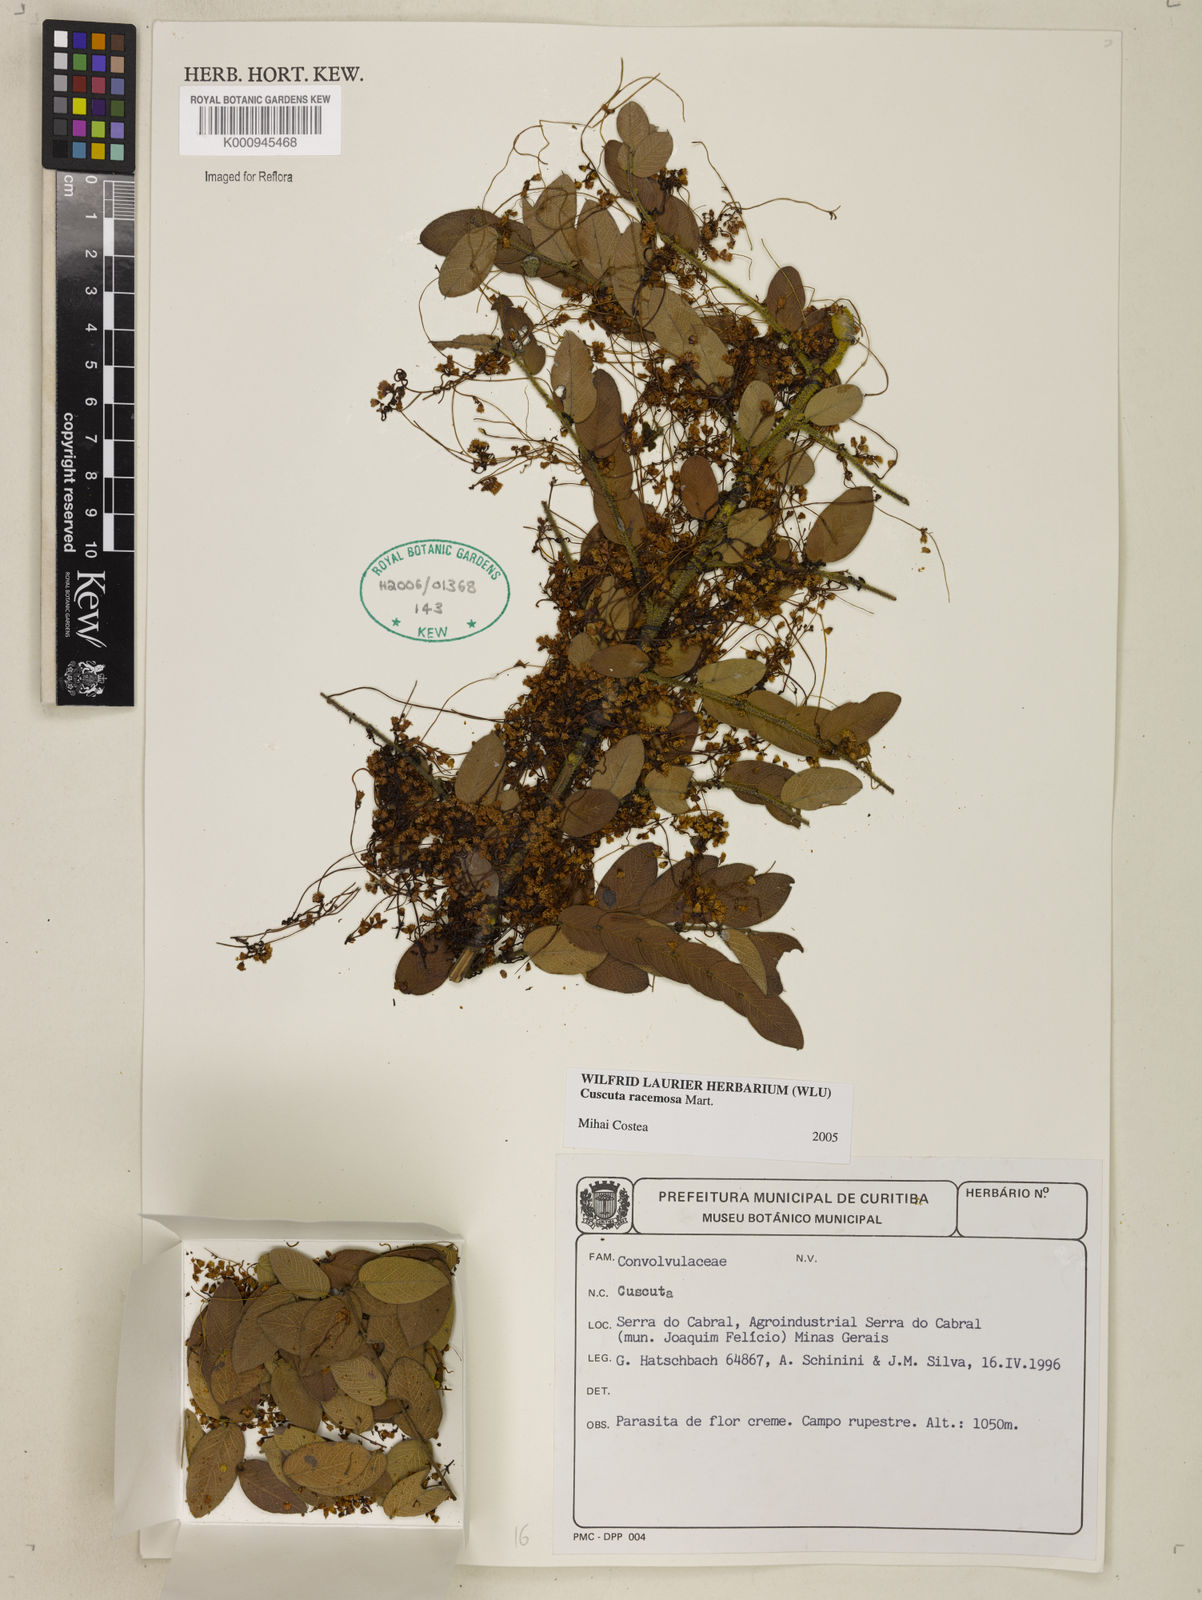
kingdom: Plantae
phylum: Tracheophyta
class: Magnoliopsida
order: Solanales
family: Convolvulaceae
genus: Cuscuta
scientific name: Cuscuta racemosa
